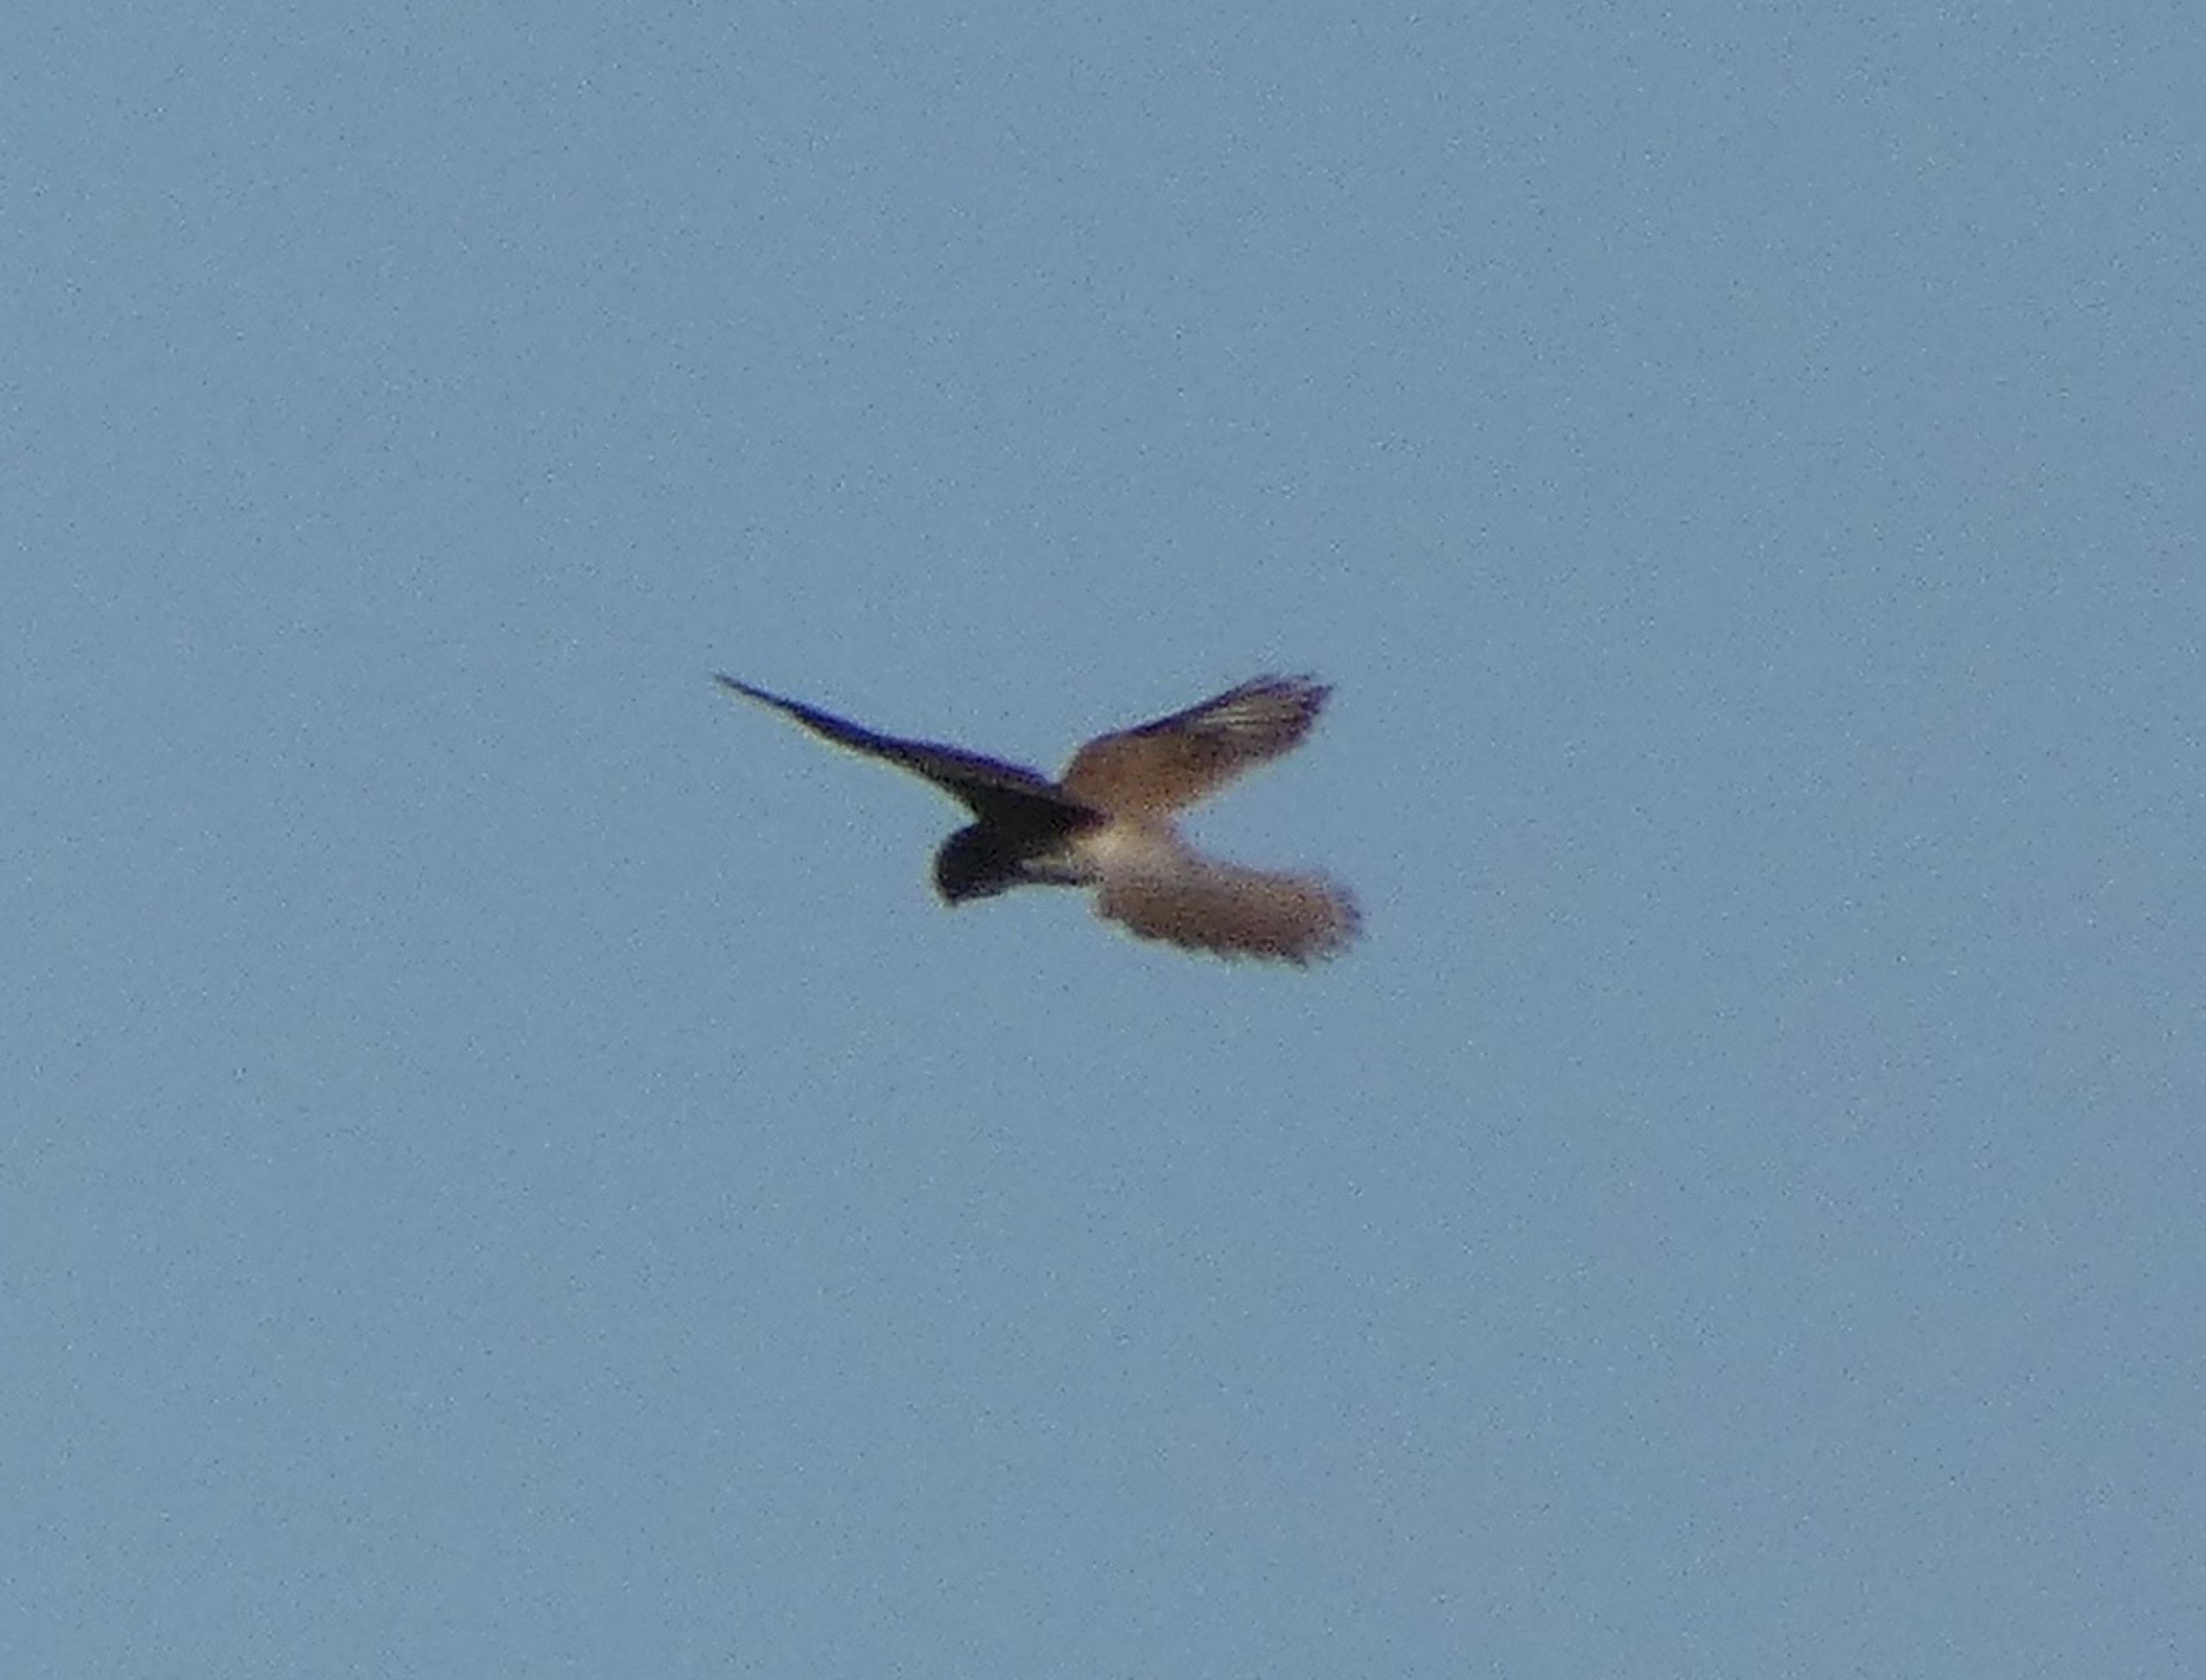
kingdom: Animalia
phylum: Chordata
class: Aves
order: Falconiformes
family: Falconidae
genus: Falco
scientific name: Falco tinnunculus
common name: Tårnfalk
